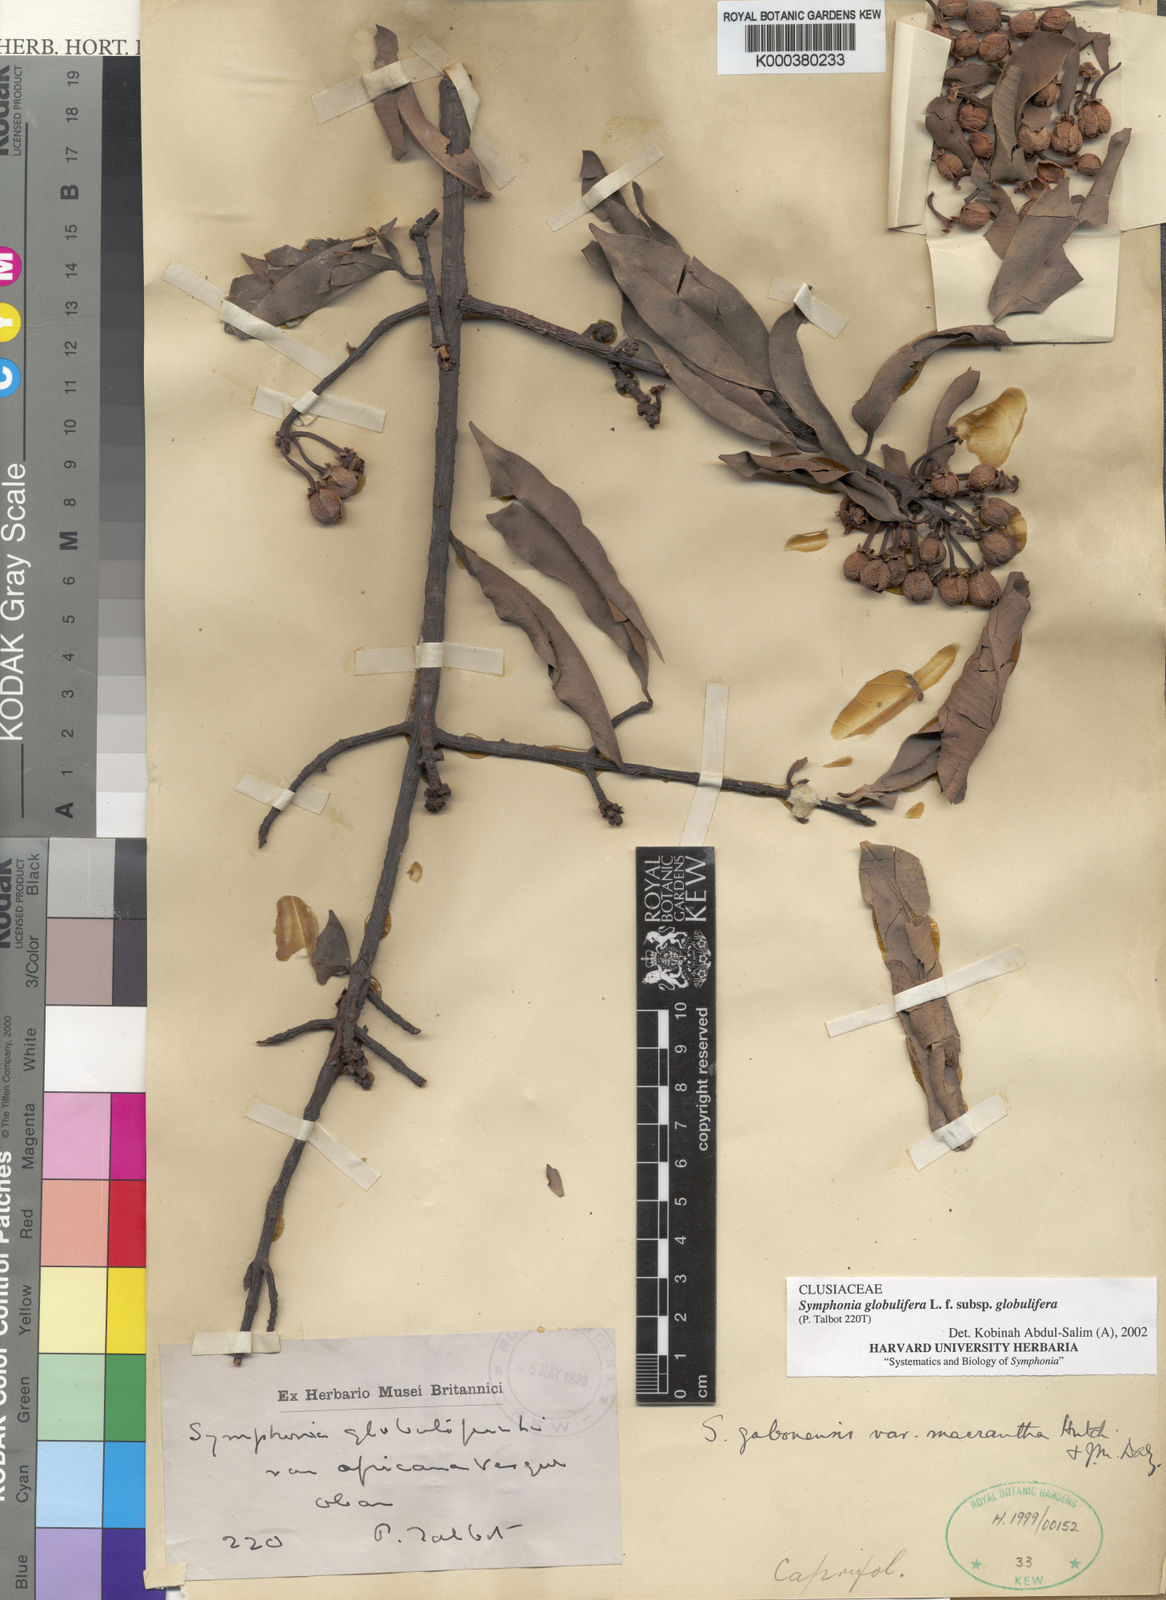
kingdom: Plantae
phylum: Tracheophyta
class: Magnoliopsida
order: Malpighiales
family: Clusiaceae
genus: Symphonia
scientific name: Symphonia globulifera
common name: Boarwood
